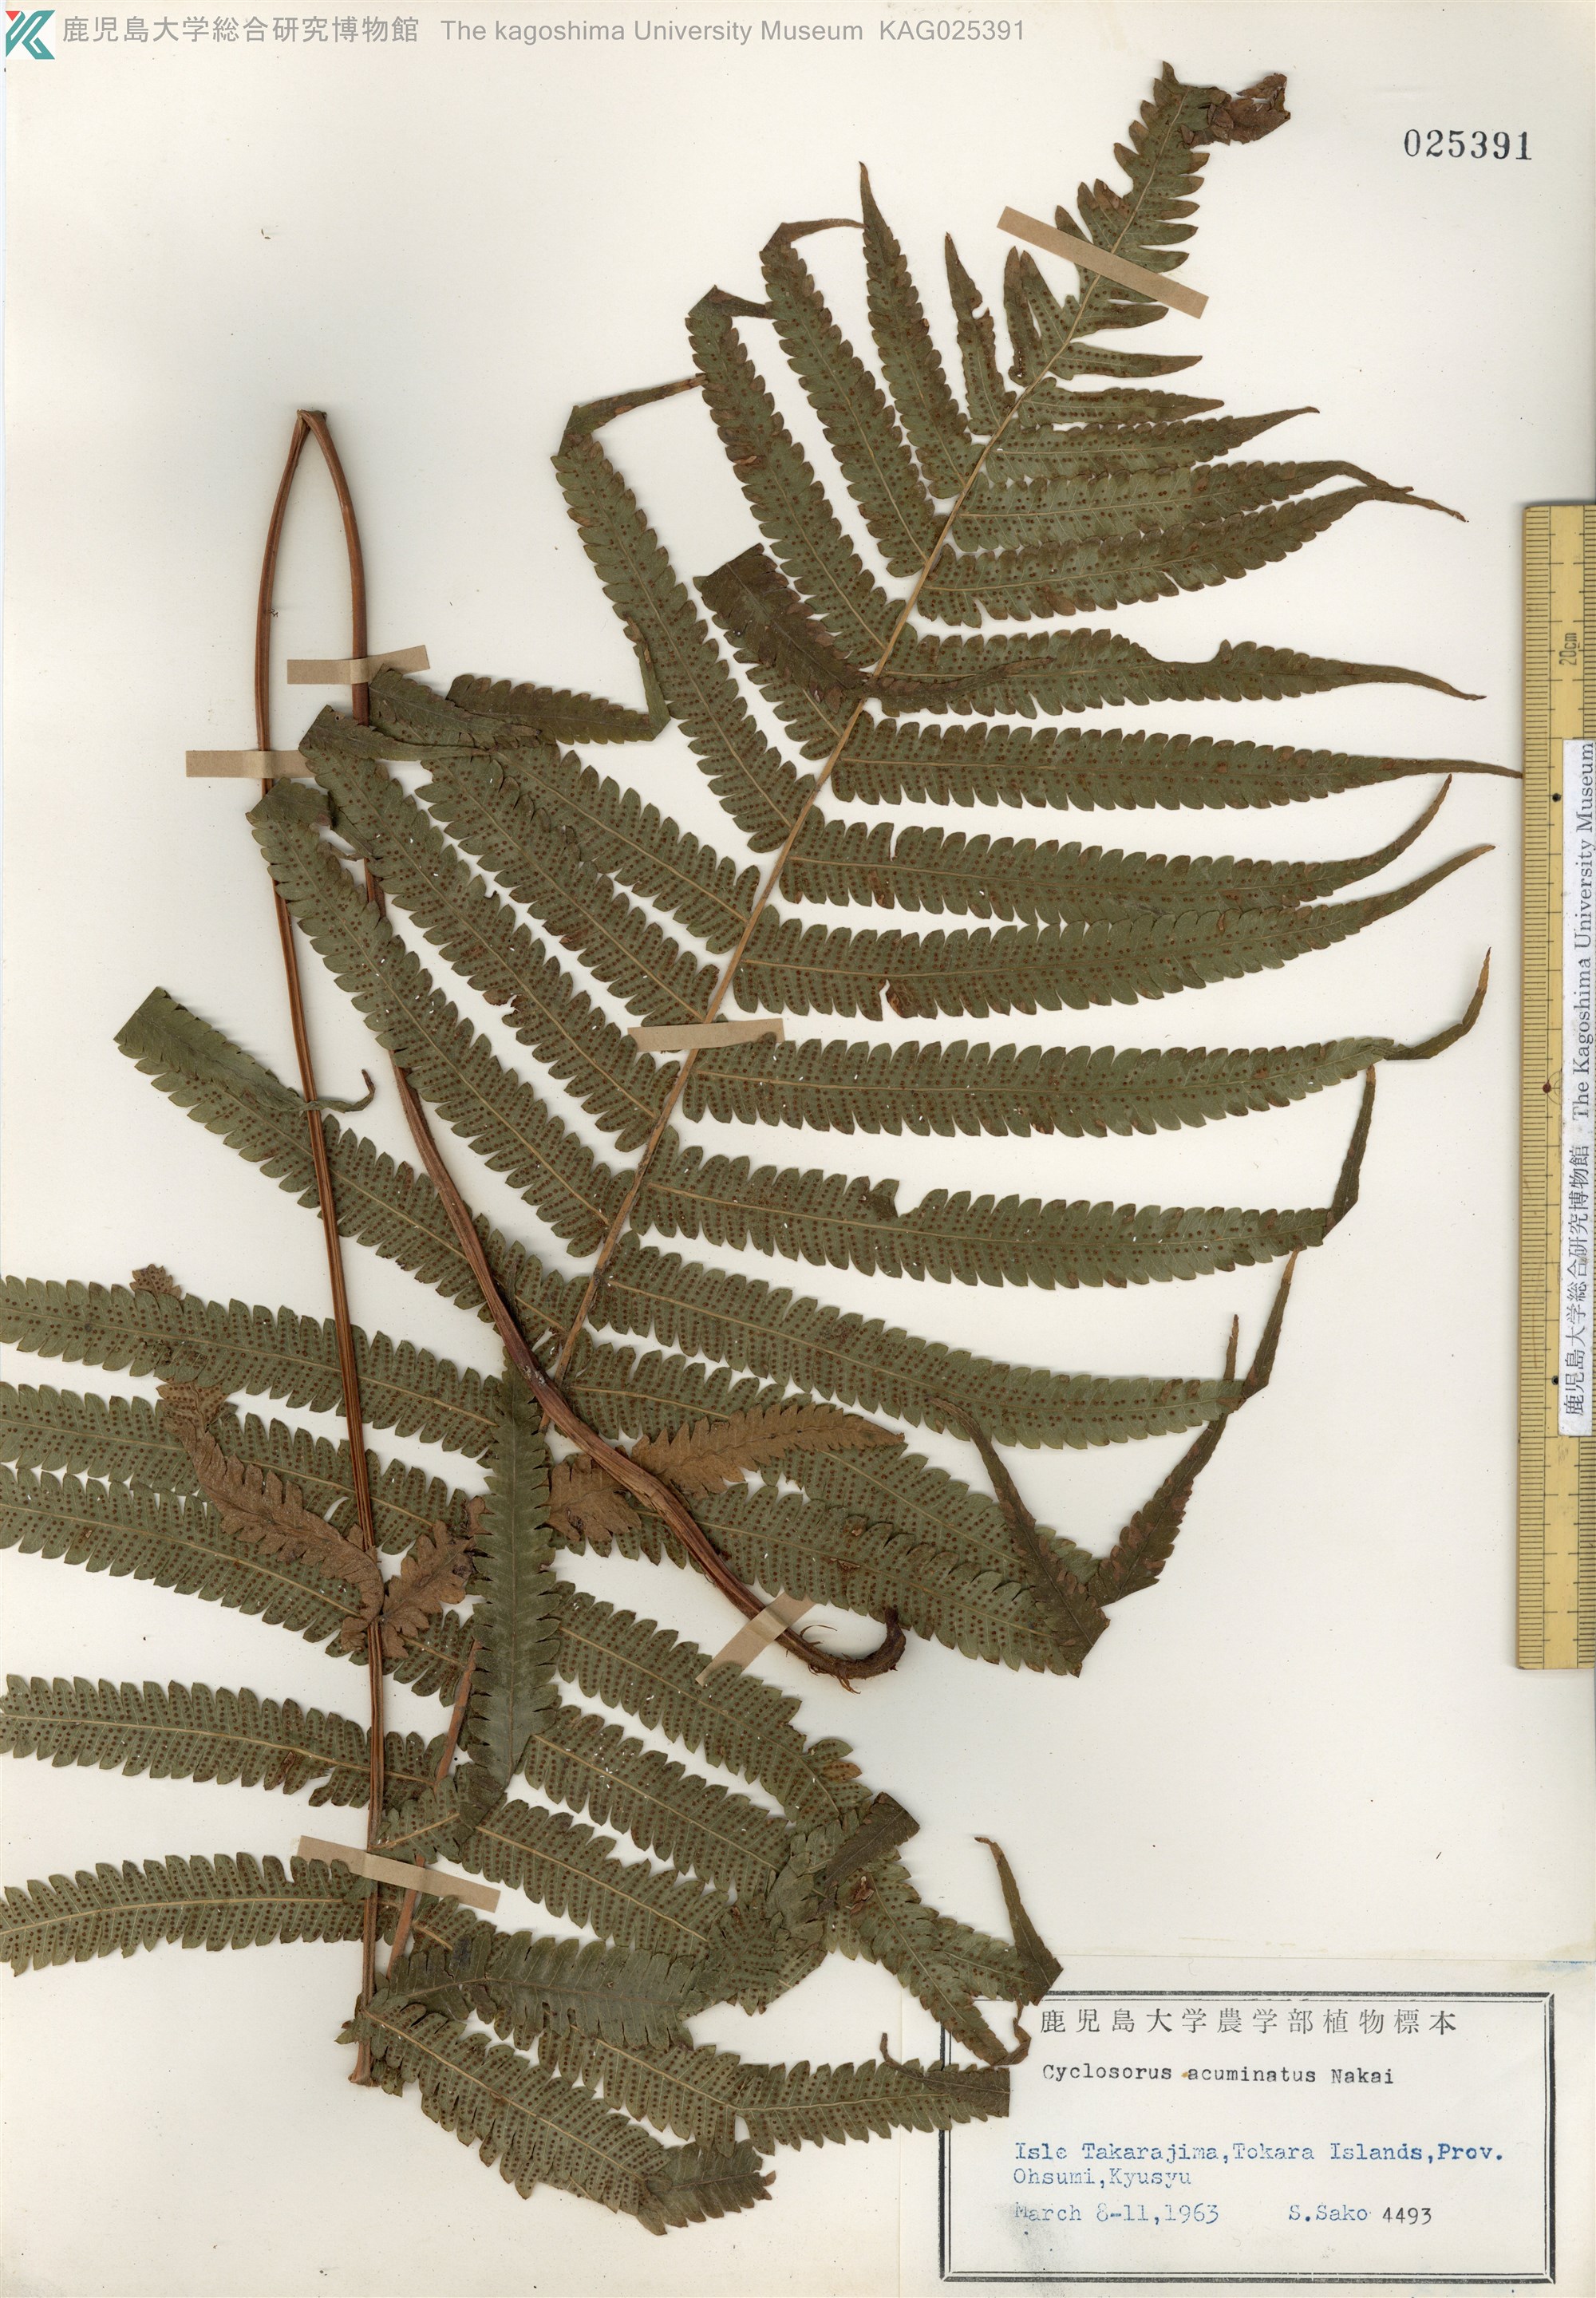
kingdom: Plantae
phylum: Tracheophyta
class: Polypodiopsida
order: Polypodiales
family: Thelypteridaceae
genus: Christella
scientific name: Christella acuminata
